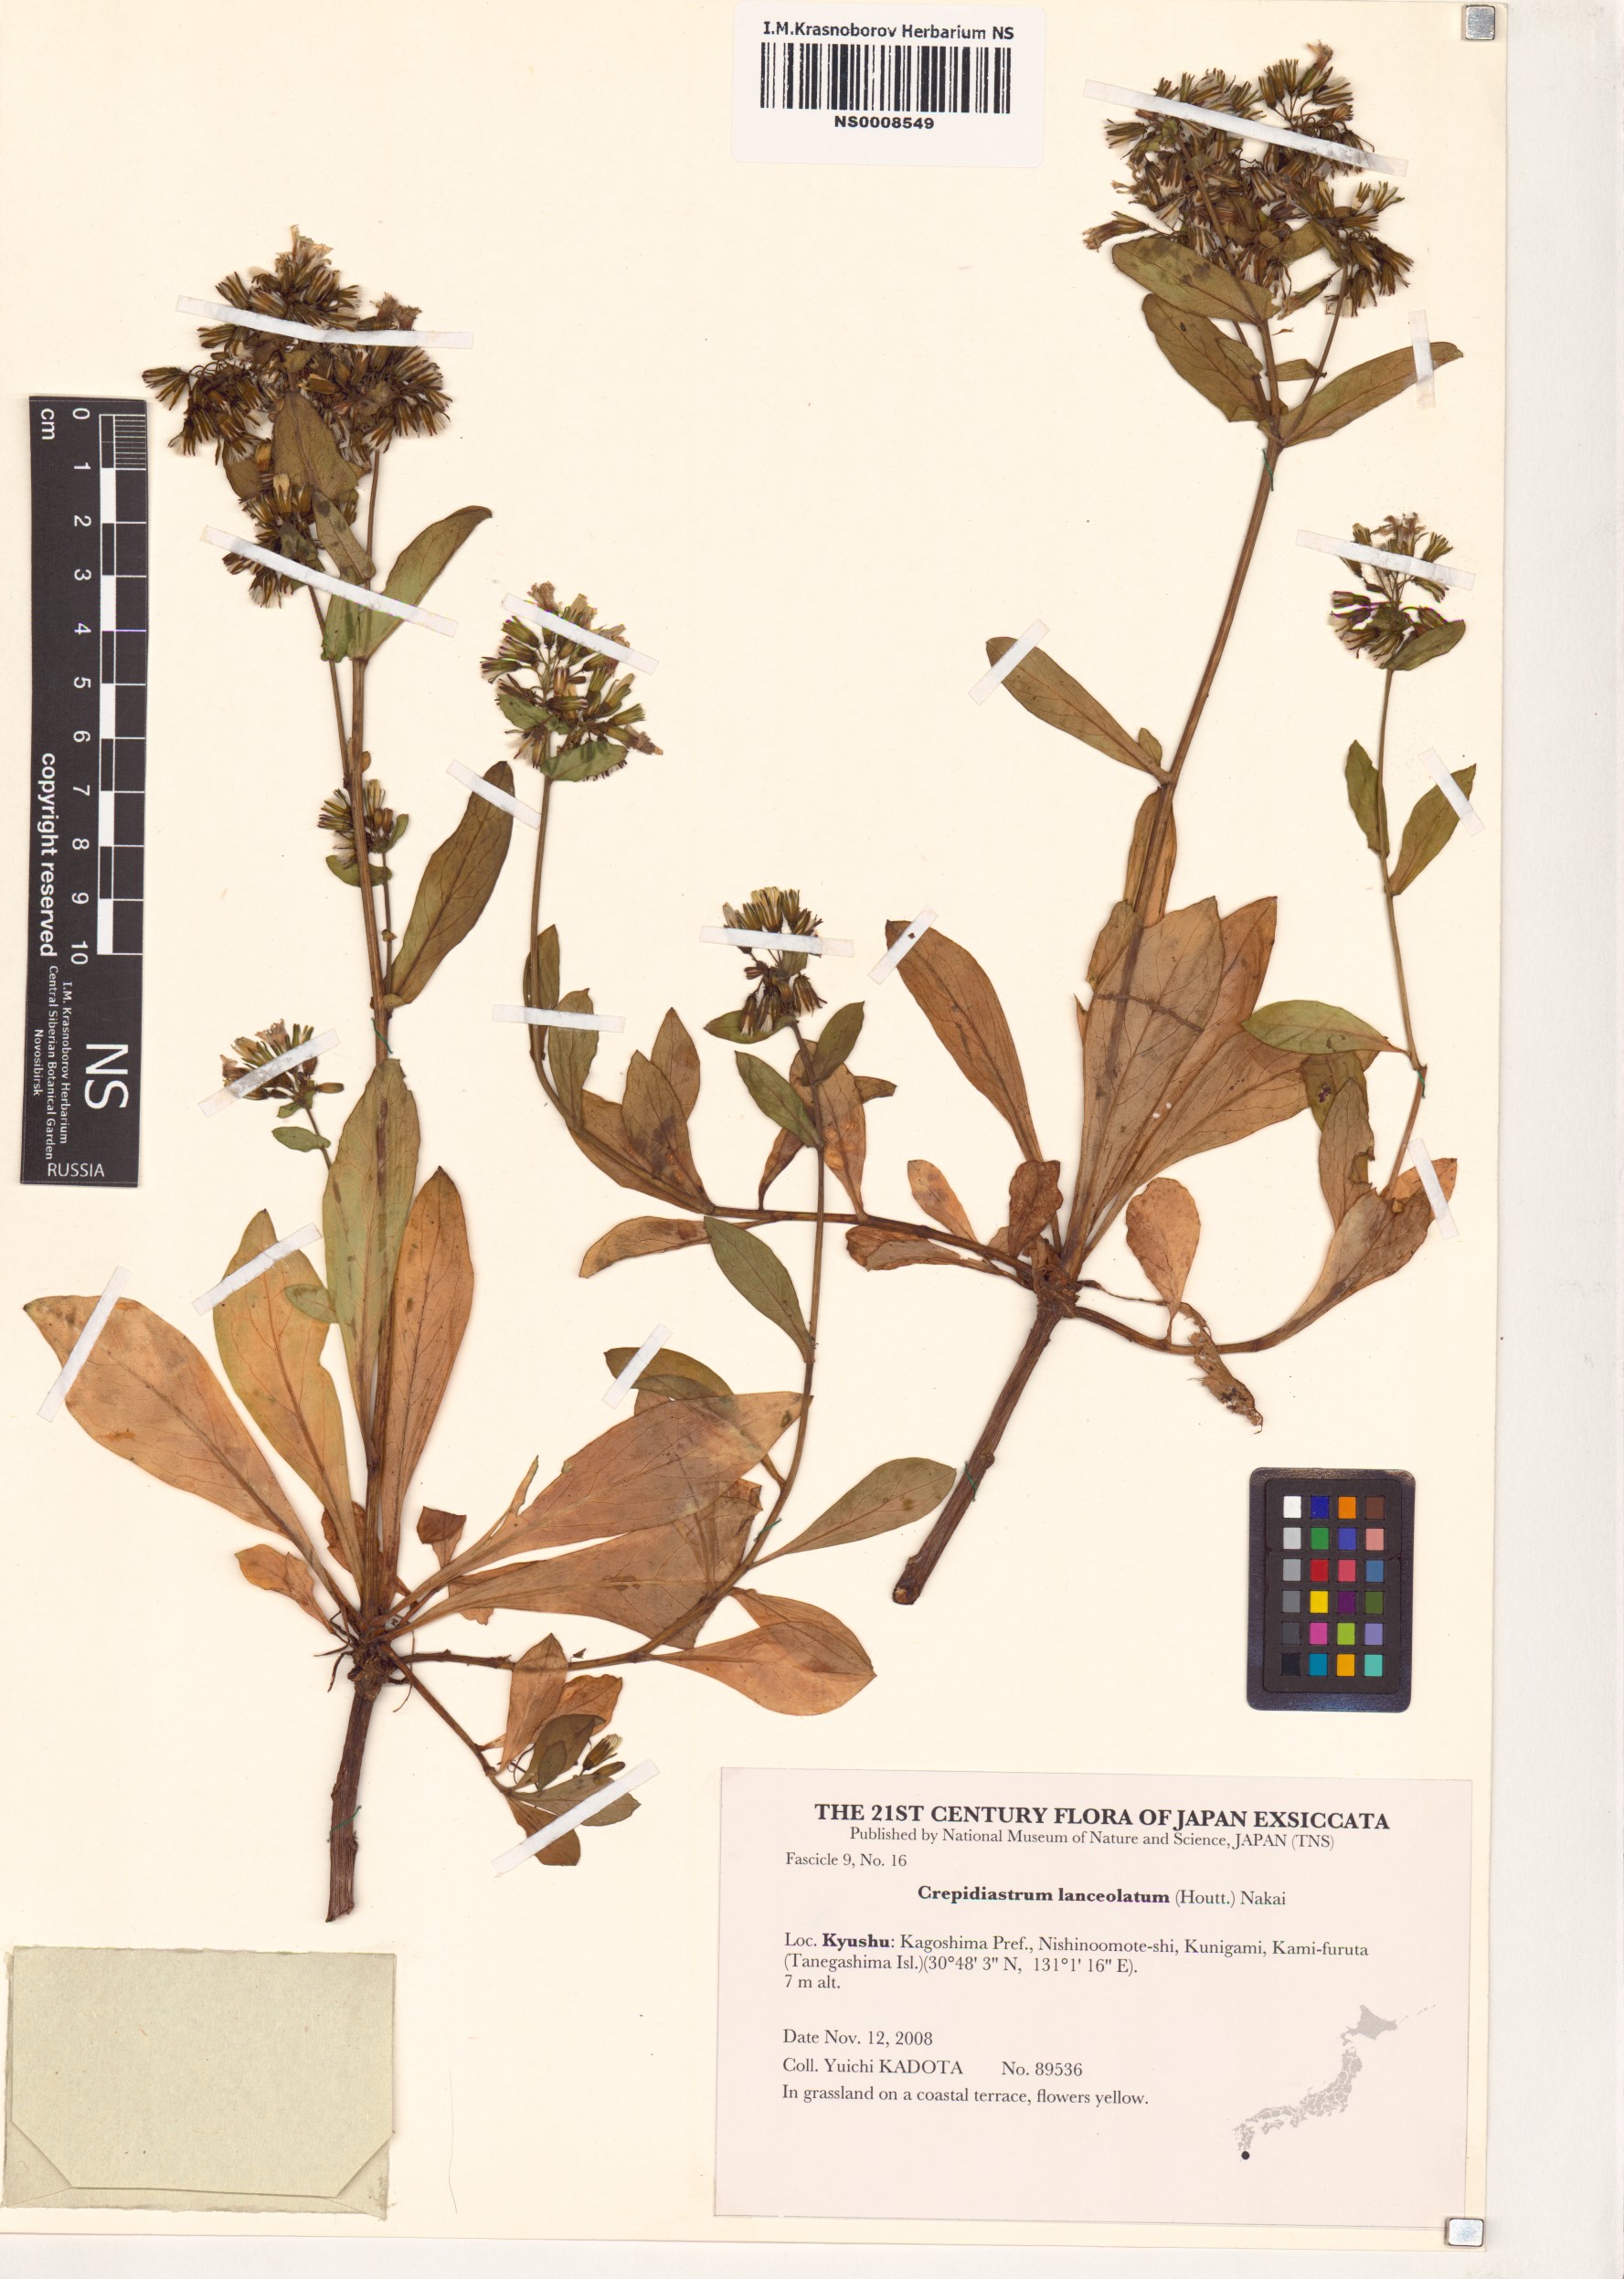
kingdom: Plantae
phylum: Tracheophyta
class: Magnoliopsida
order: Asterales
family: Asteraceae
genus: Crepidiastrum
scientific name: Crepidiastrum lanceolatum
